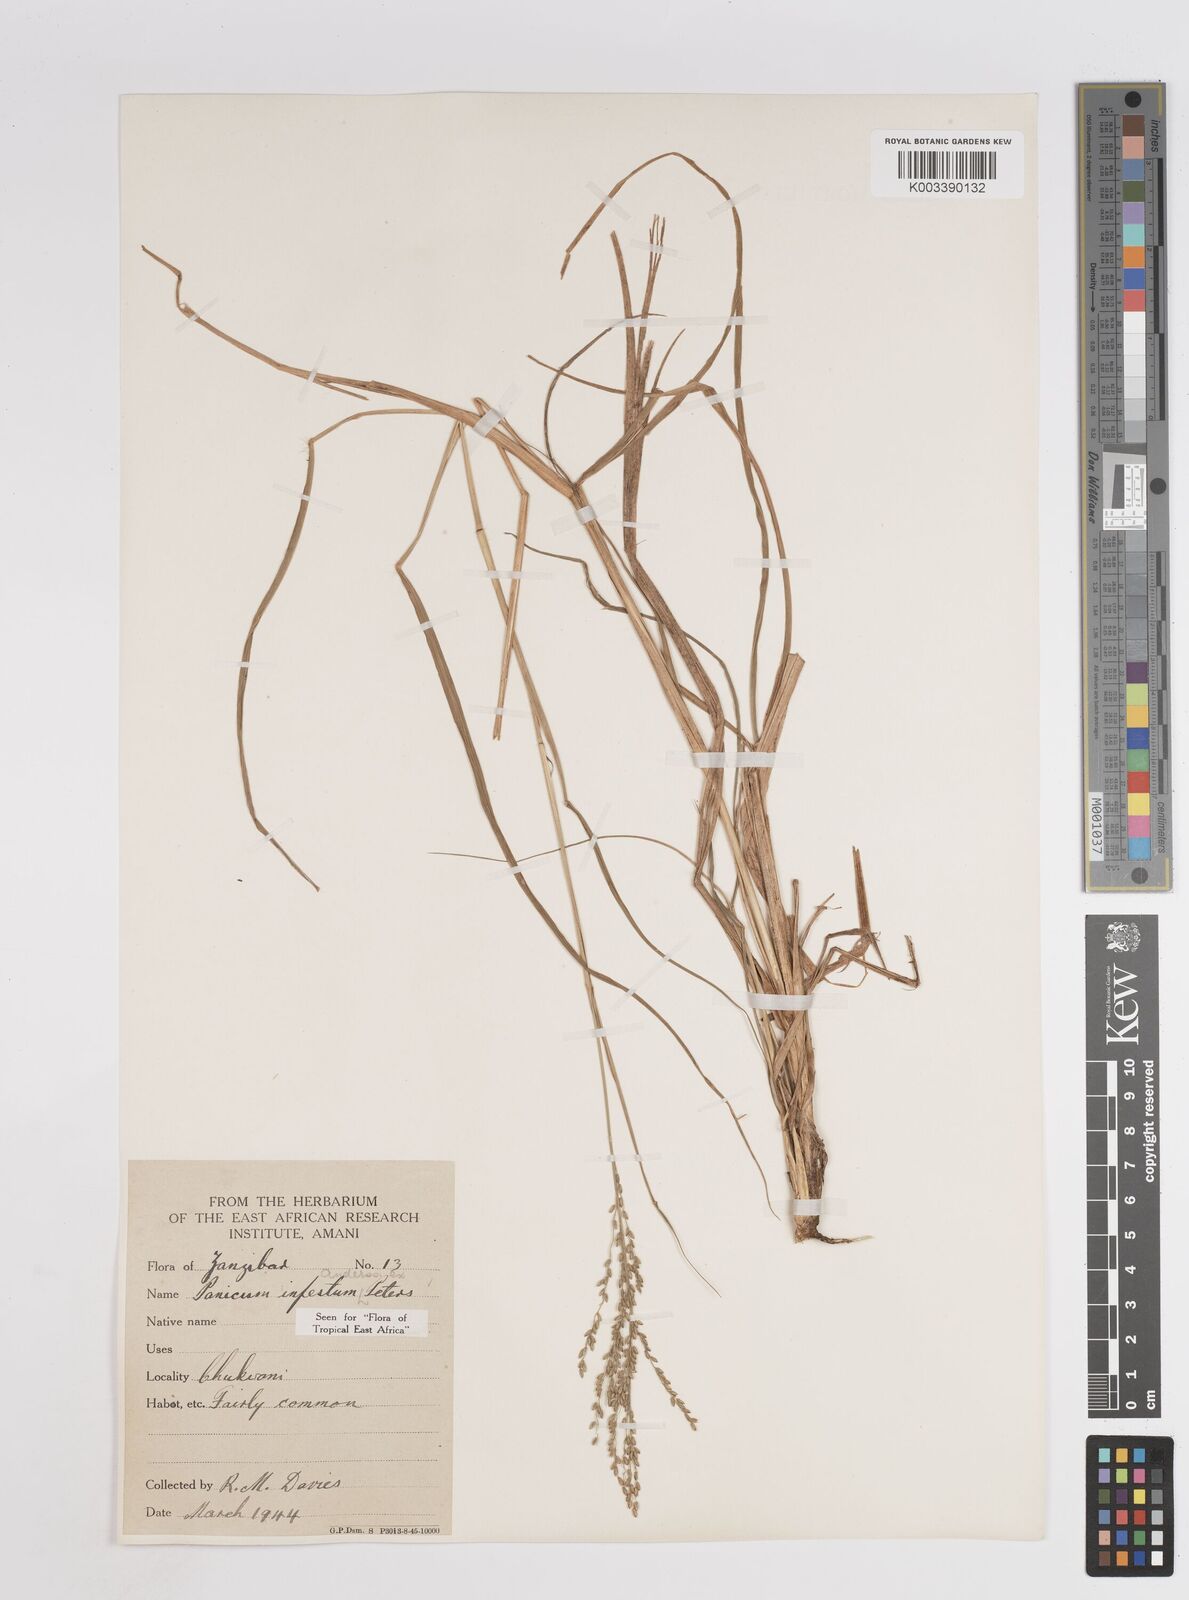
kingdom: Plantae
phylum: Tracheophyta
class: Liliopsida
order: Poales
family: Poaceae
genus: Megathyrsus
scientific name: Megathyrsus infestus
